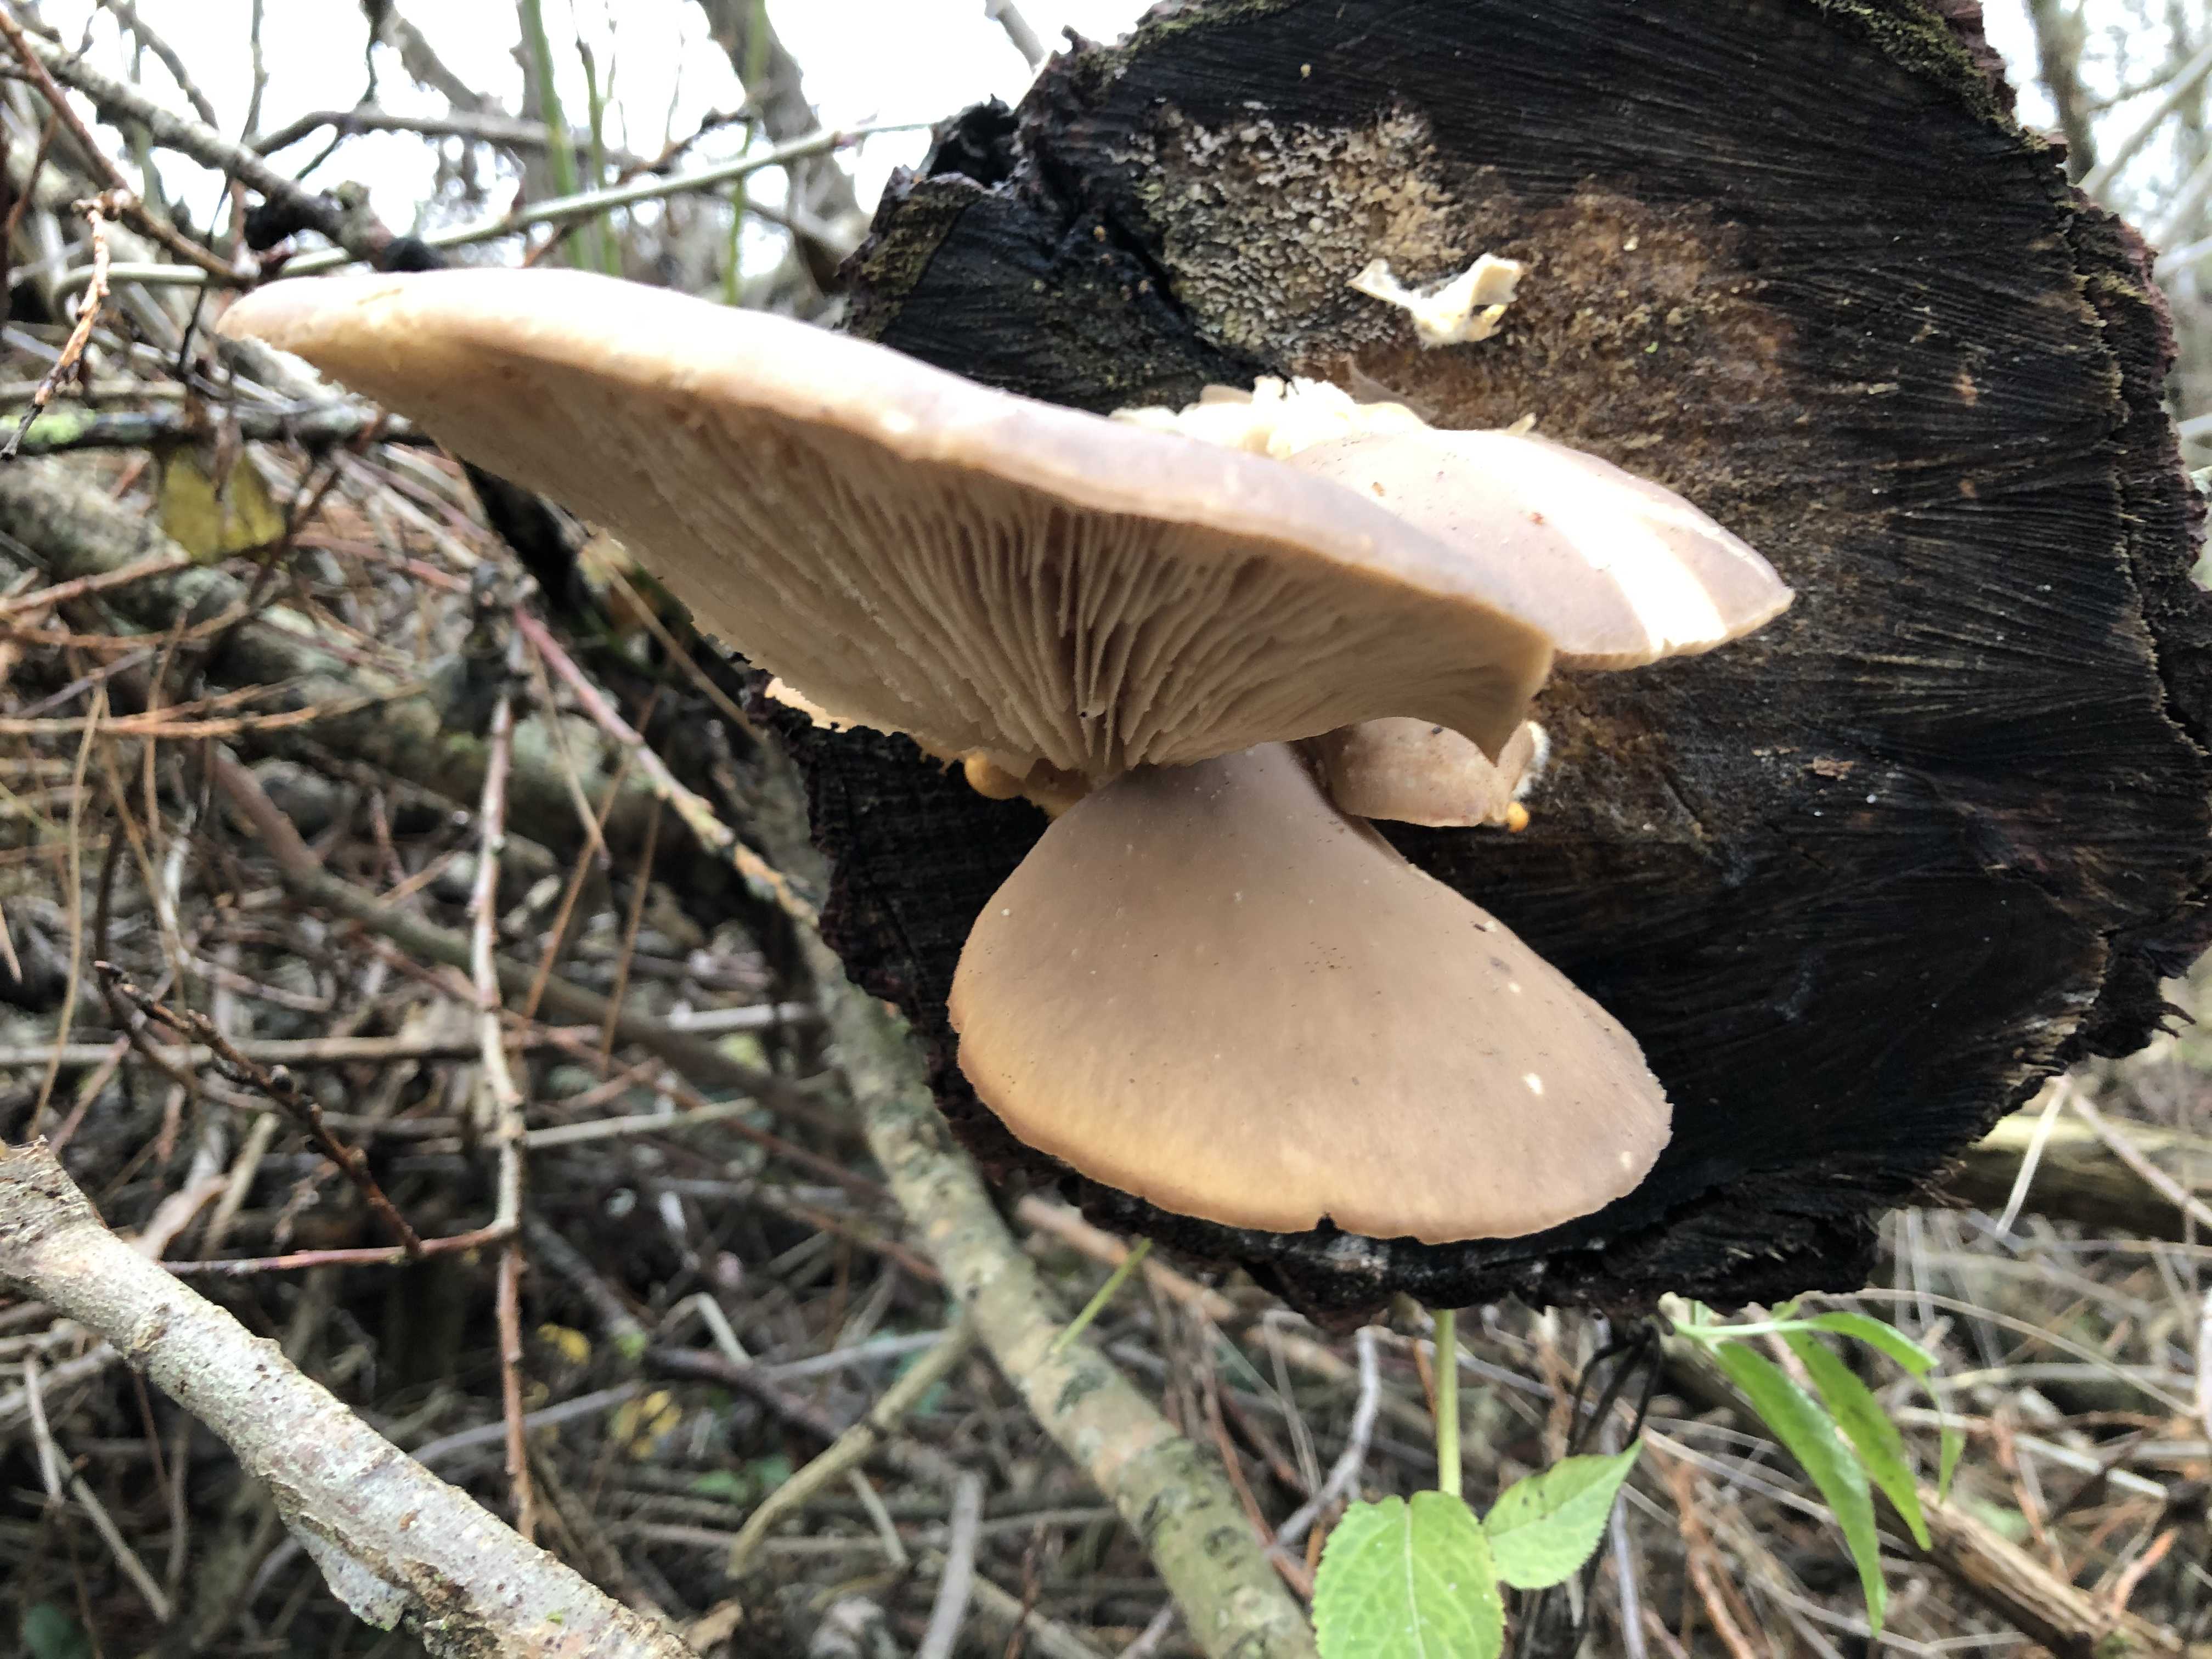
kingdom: Fungi
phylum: Basidiomycota
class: Agaricomycetes
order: Agaricales
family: Pleurotaceae
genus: Pleurotus
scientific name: Pleurotus ostreatus
